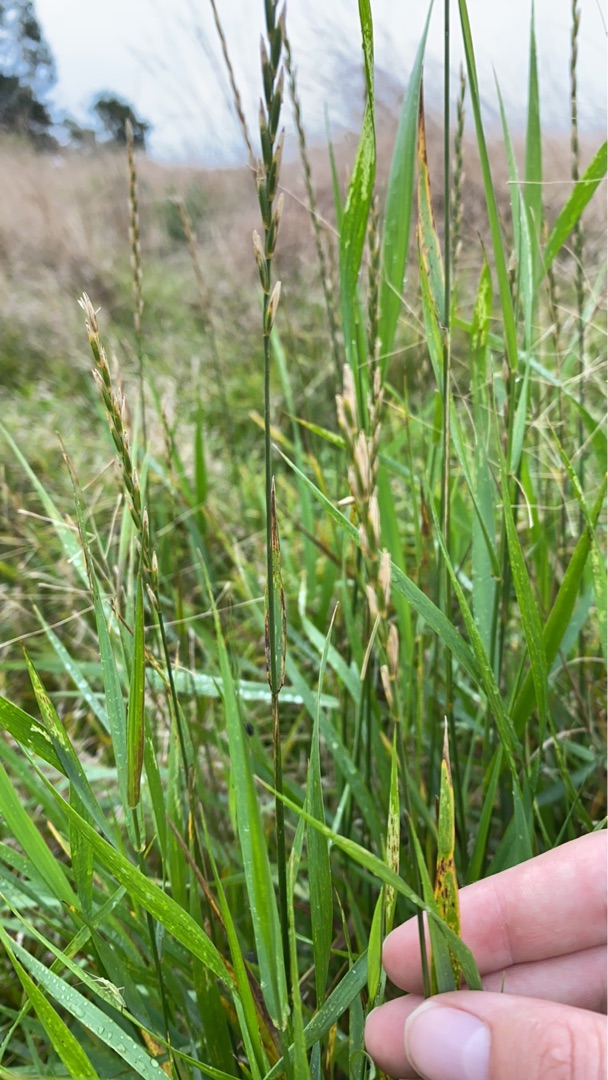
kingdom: Plantae
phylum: Tracheophyta
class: Liliopsida
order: Poales
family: Poaceae
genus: Elymus
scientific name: Elymus repens
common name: Almindelig kvik
